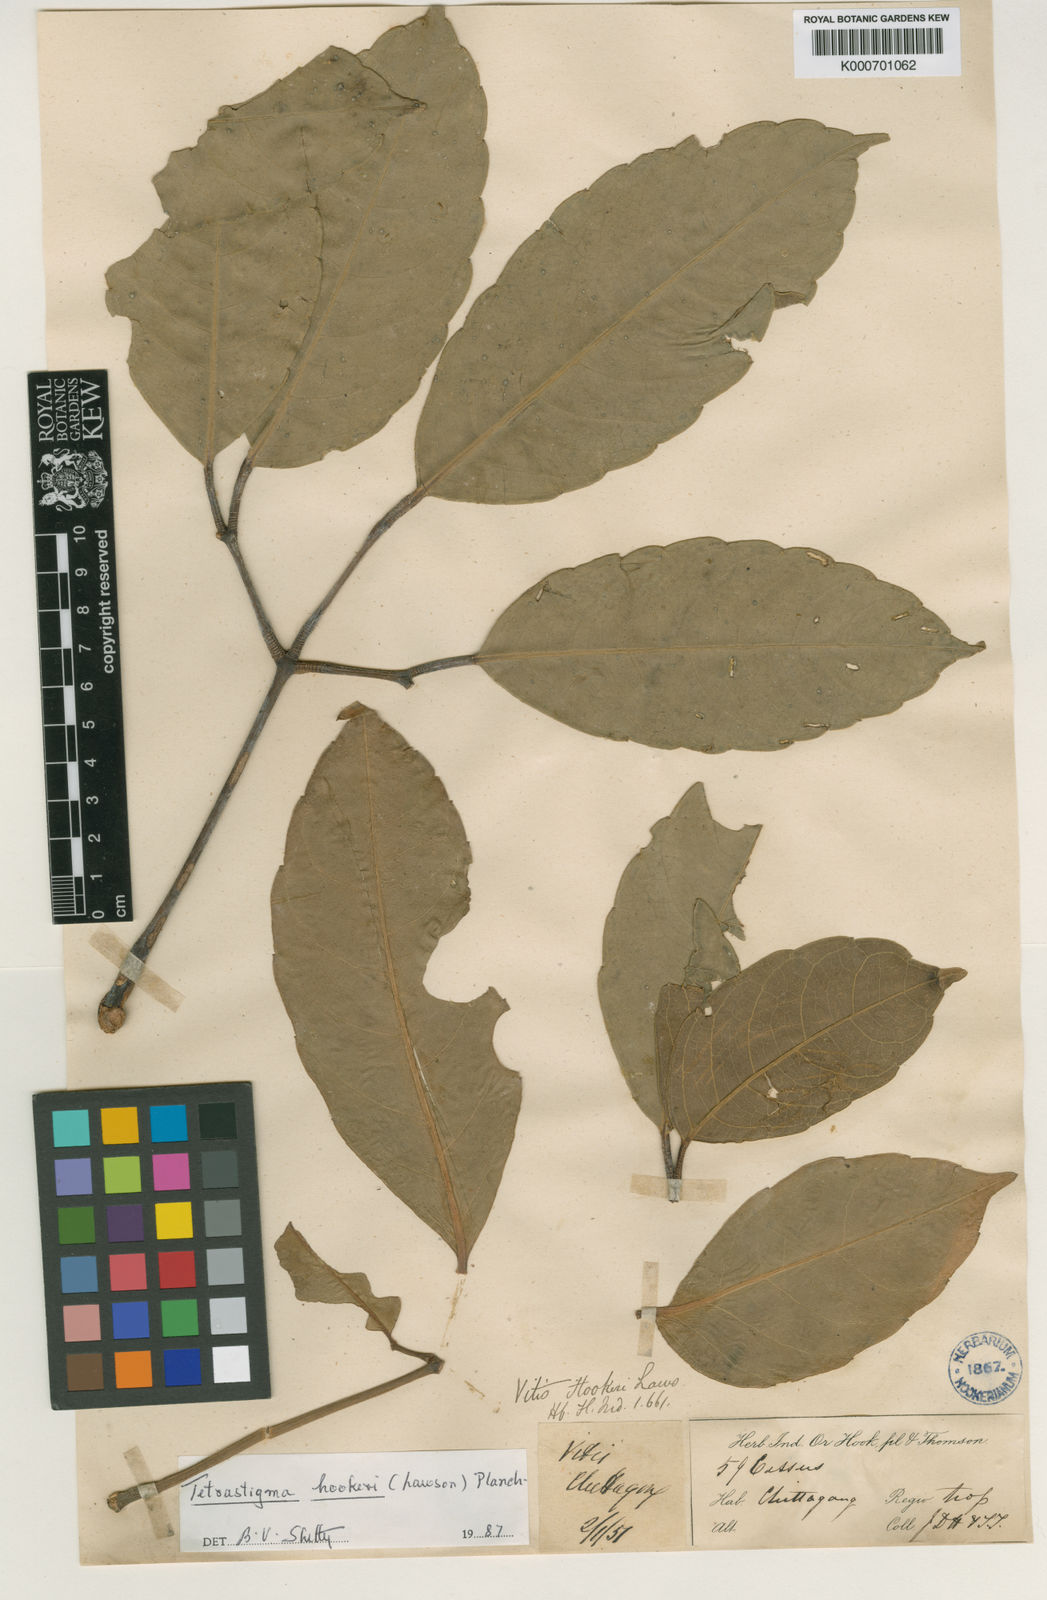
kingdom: Plantae
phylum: Tracheophyta
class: Magnoliopsida
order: Vitales
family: Vitaceae
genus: Tetrastigma
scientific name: Tetrastigma hookeri
